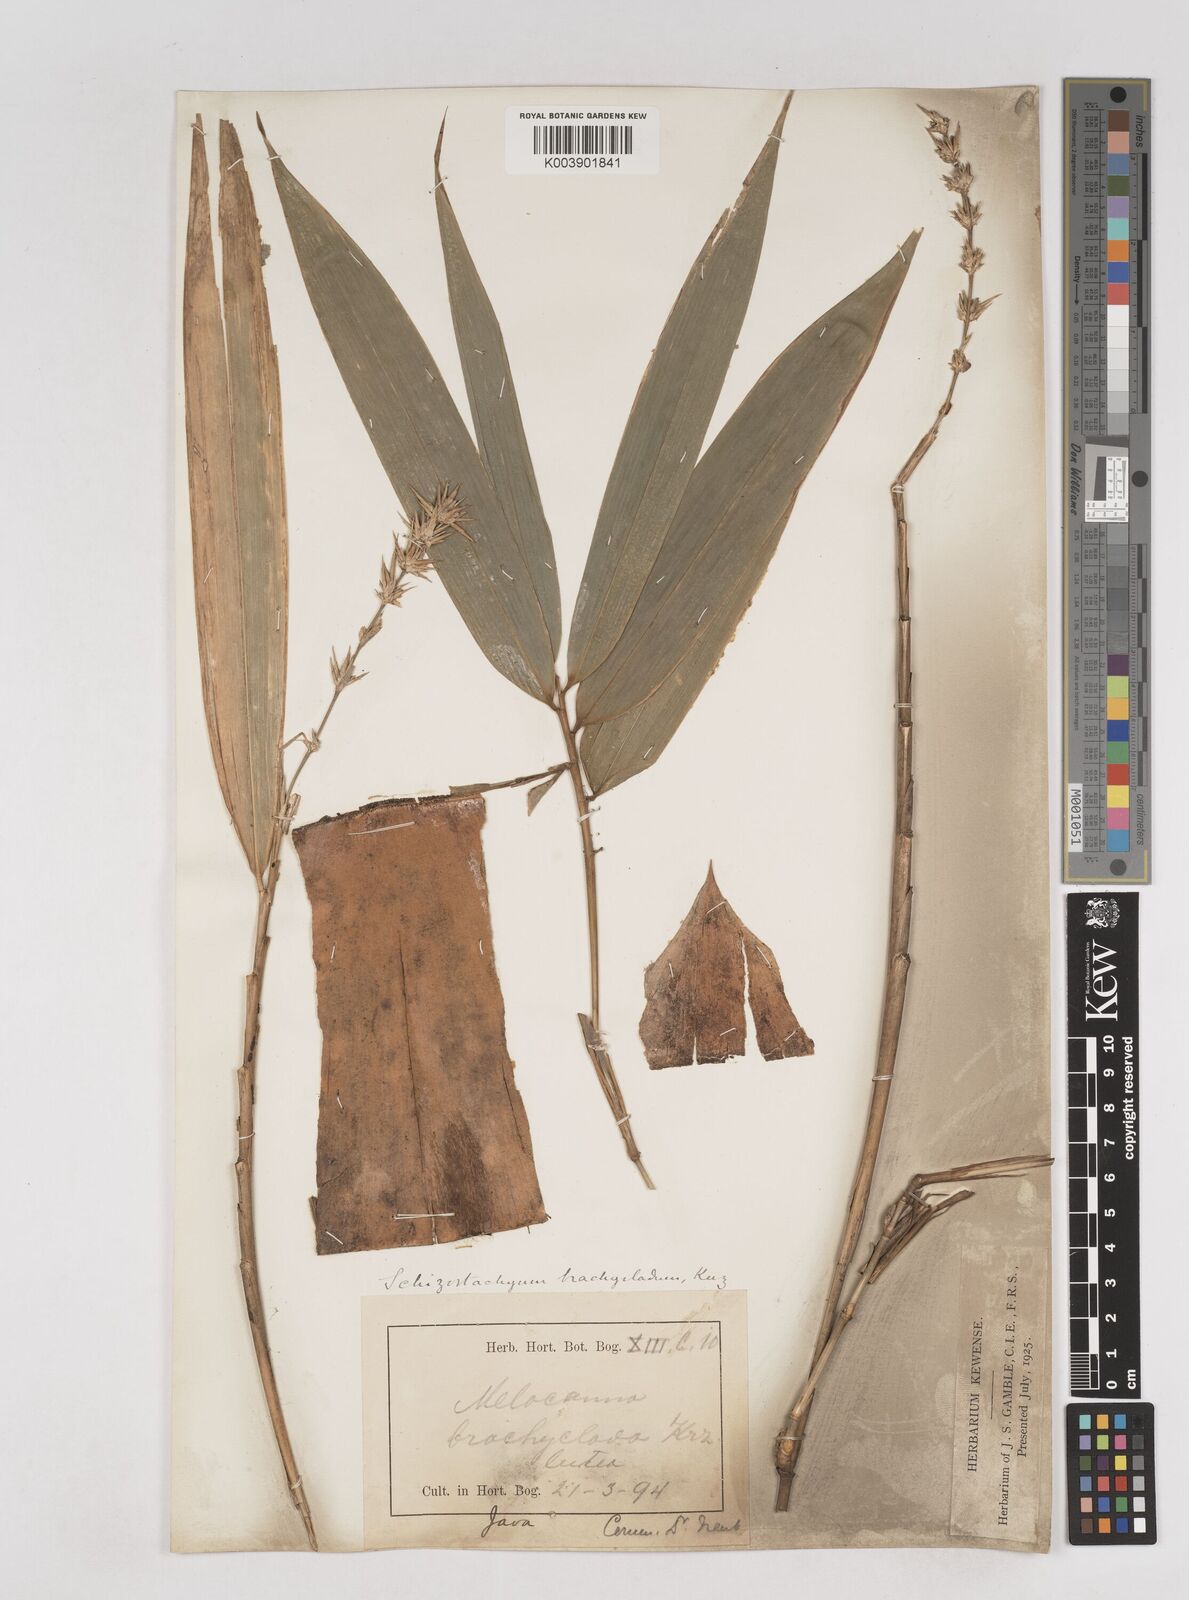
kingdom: Plantae
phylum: Tracheophyta
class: Liliopsida
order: Poales
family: Poaceae
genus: Schizostachyum
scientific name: Schizostachyum brachycladum
